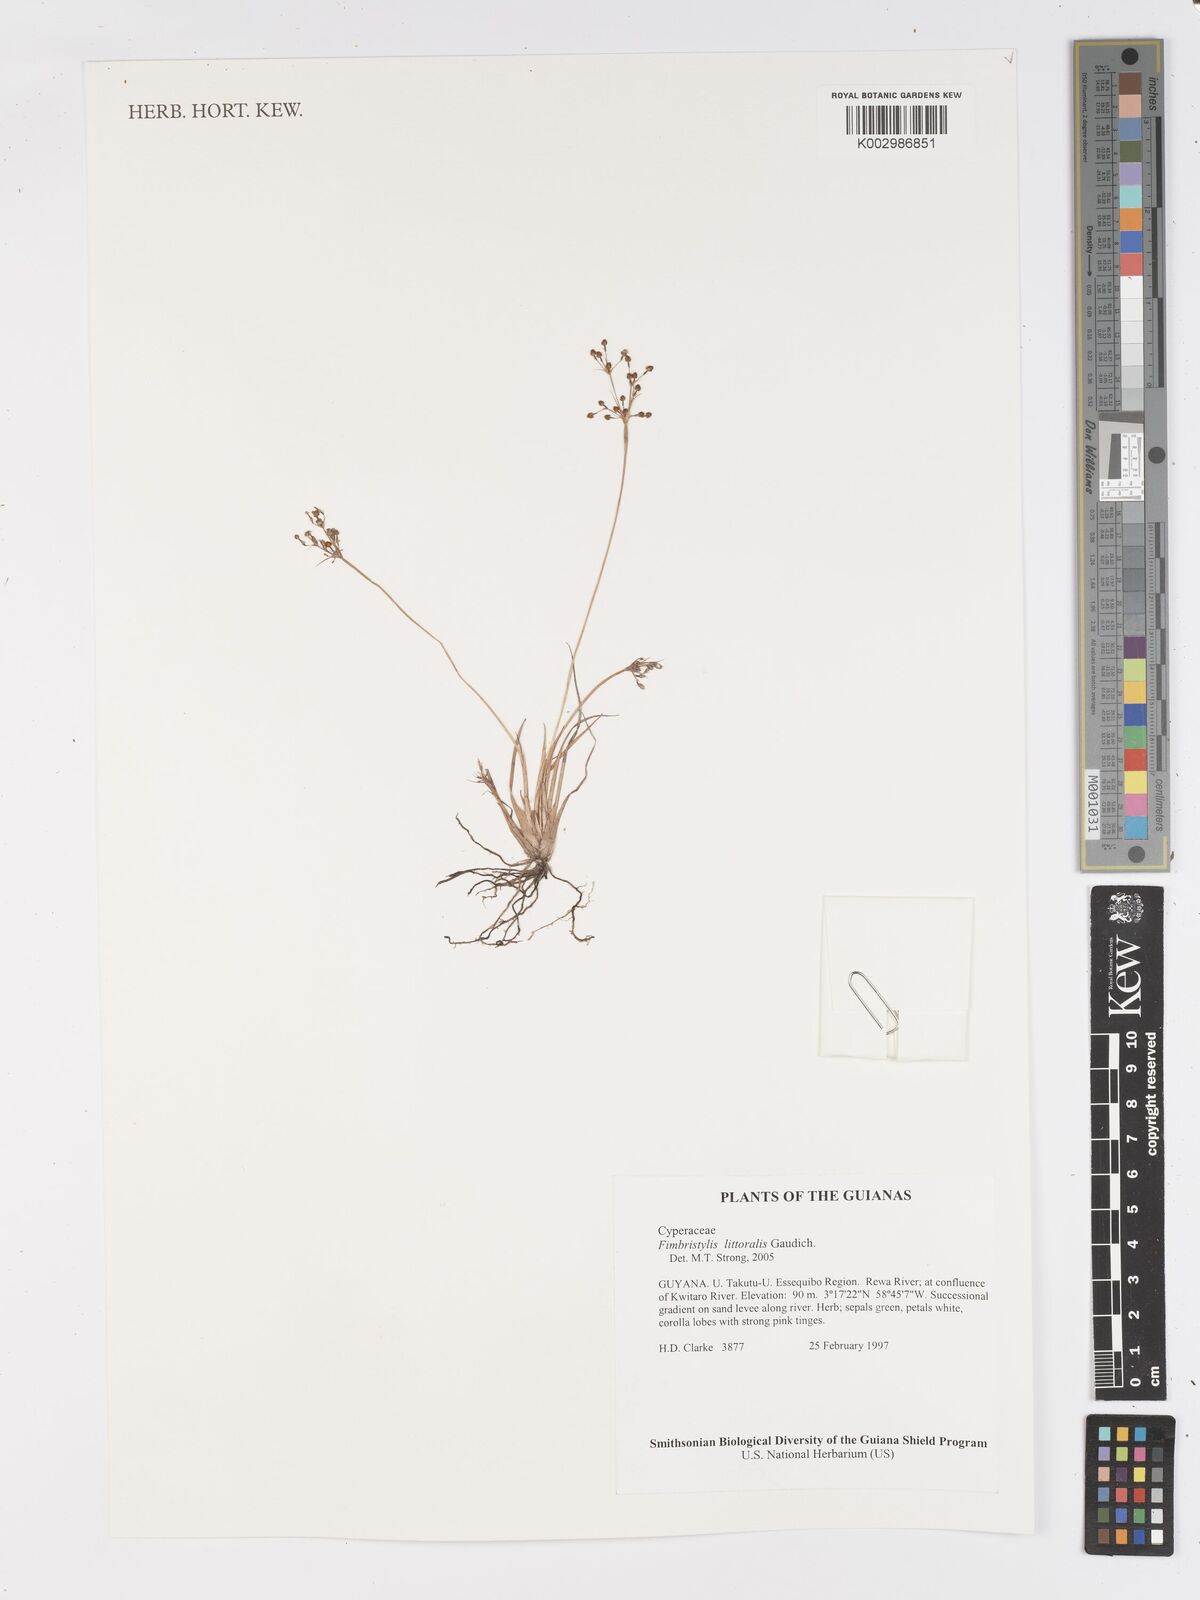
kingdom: Plantae
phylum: Tracheophyta
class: Liliopsida
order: Poales
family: Cyperaceae
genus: Fimbristylis
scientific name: Fimbristylis littoralis
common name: Fimbry
